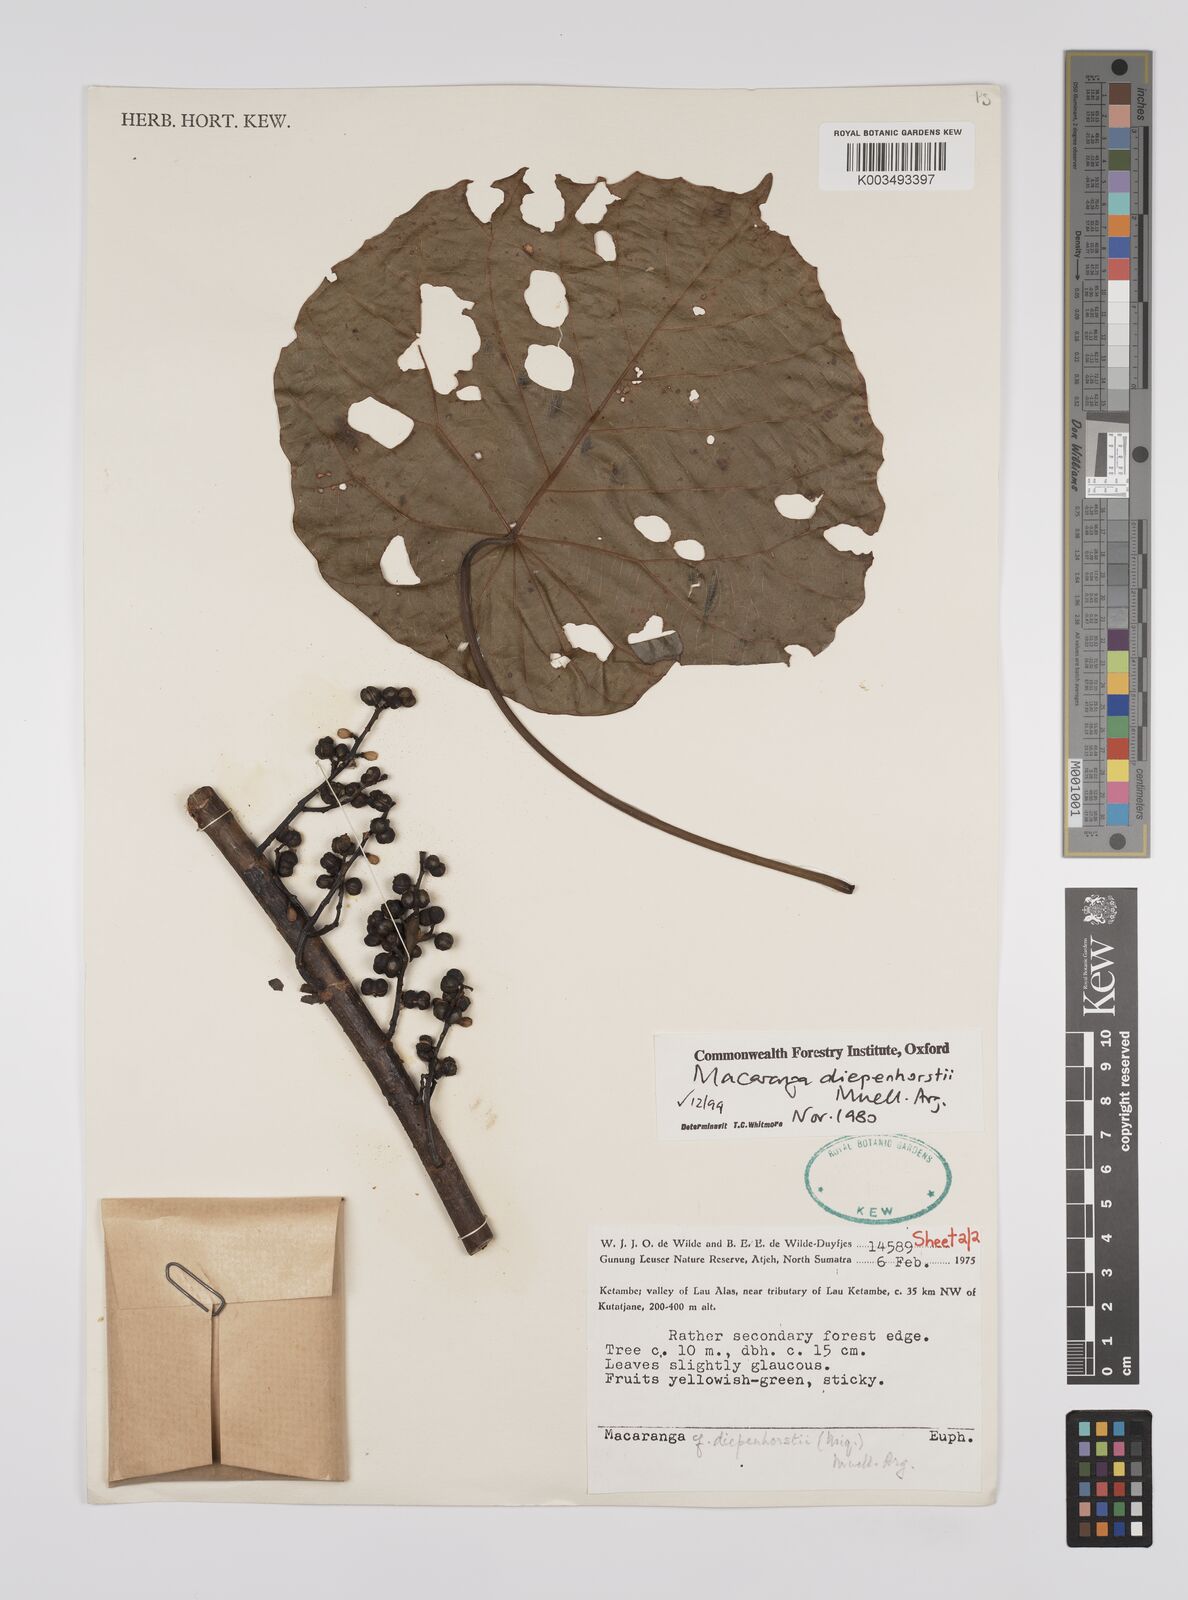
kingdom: Plantae
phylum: Tracheophyta
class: Magnoliopsida
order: Malpighiales
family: Euphorbiaceae
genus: Macaranga
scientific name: Macaranga diepenhorstii
